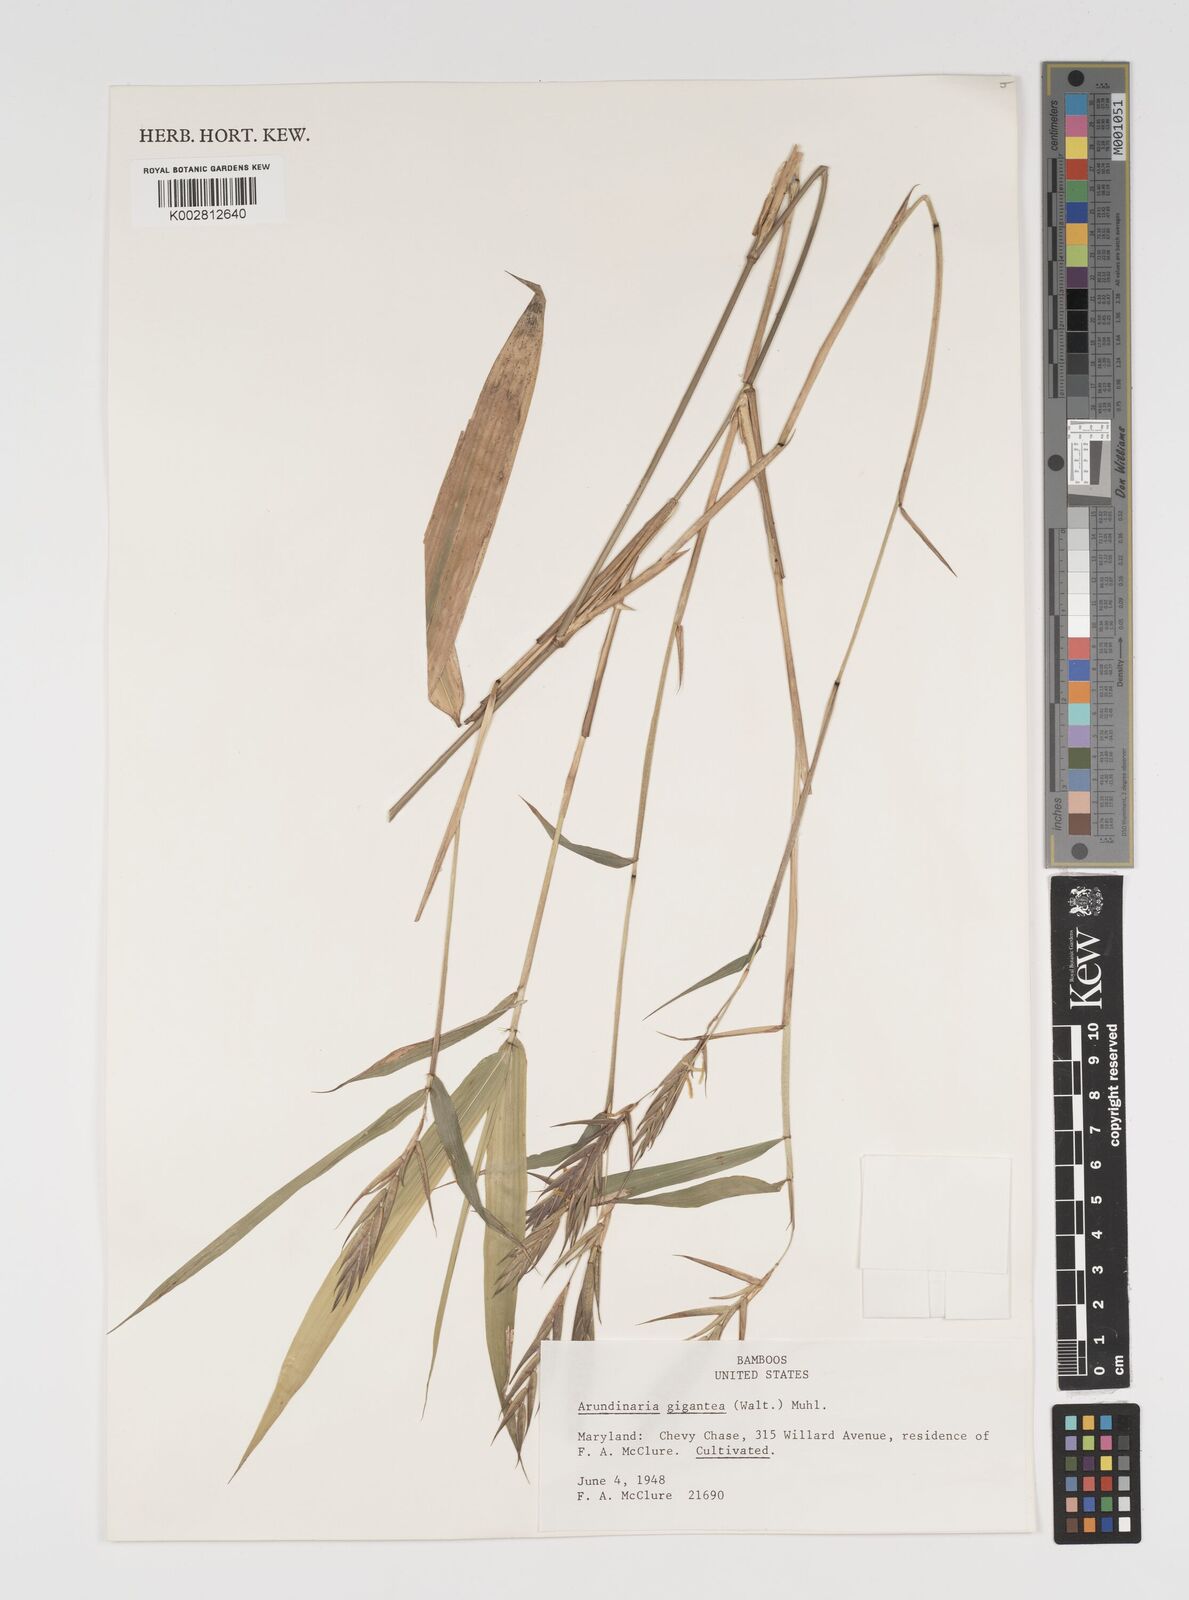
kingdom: Plantae
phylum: Tracheophyta
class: Liliopsida
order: Poales
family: Poaceae
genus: Arundinaria
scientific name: Arundinaria
